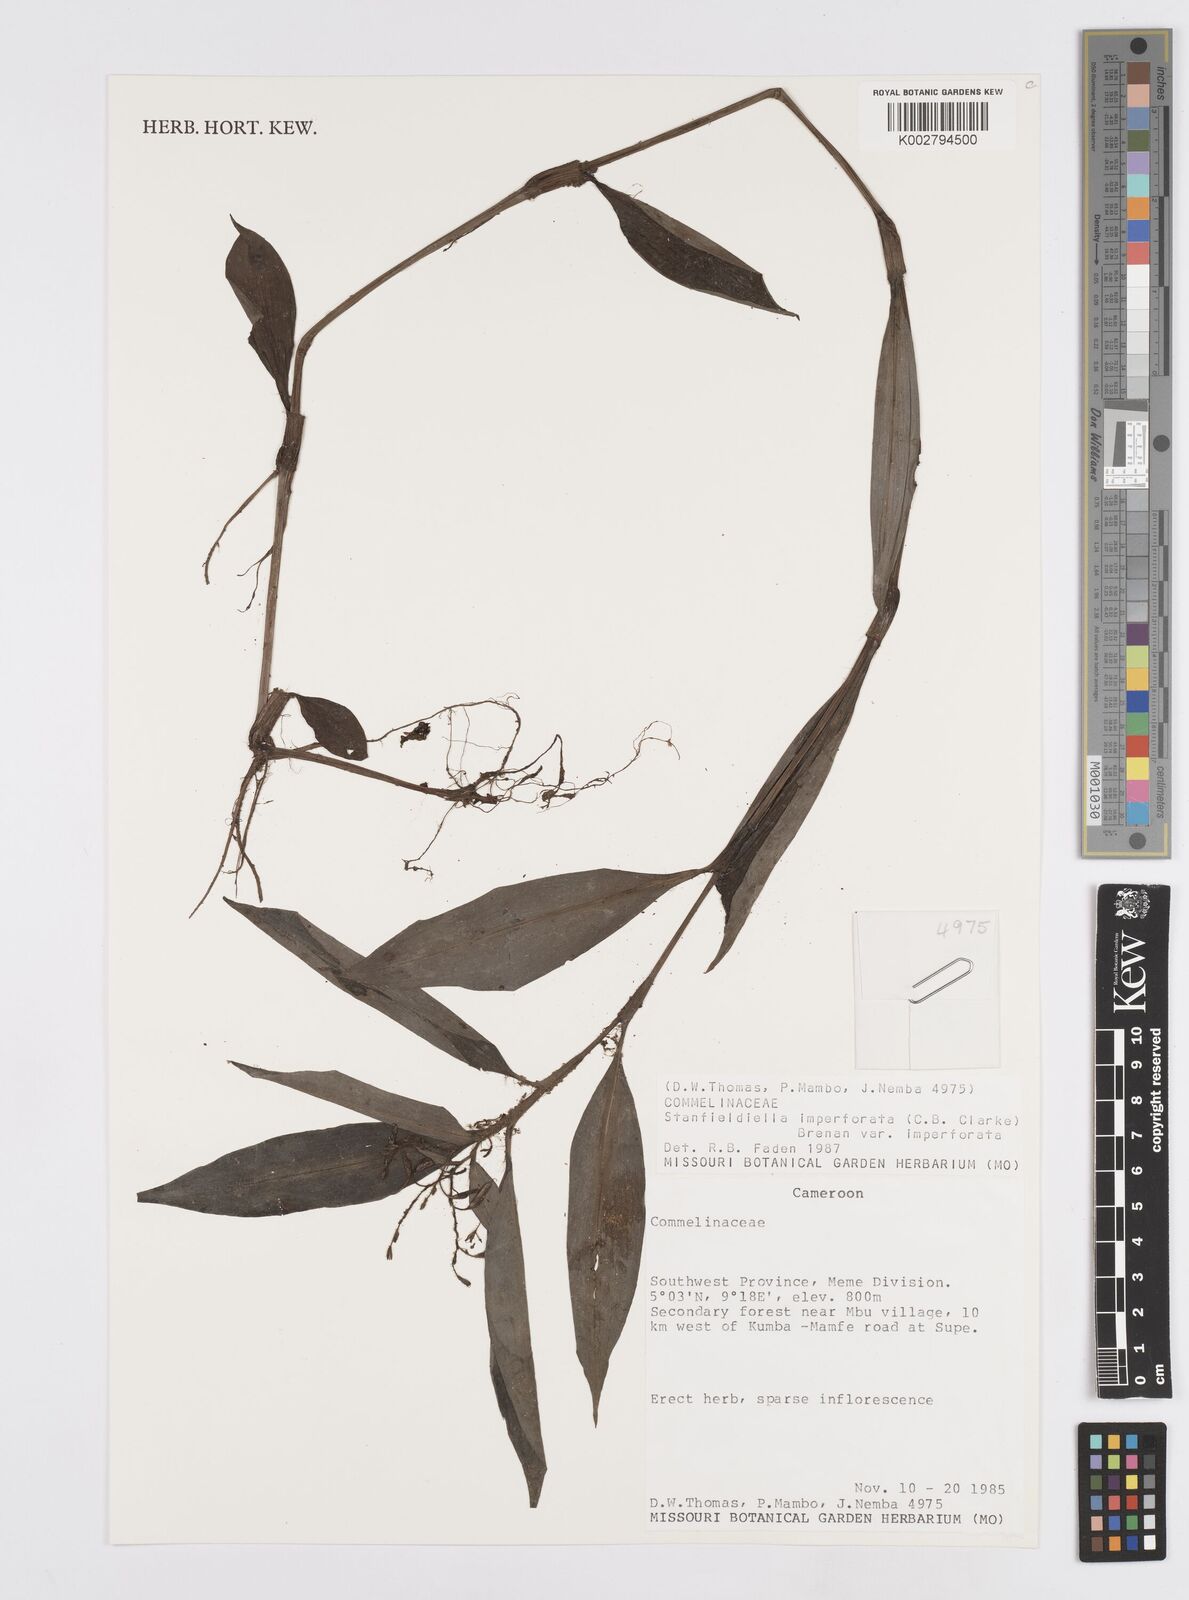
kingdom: Plantae
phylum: Tracheophyta
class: Liliopsida
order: Commelinales
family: Commelinaceae
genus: Stanfieldiella
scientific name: Stanfieldiella imperforata
